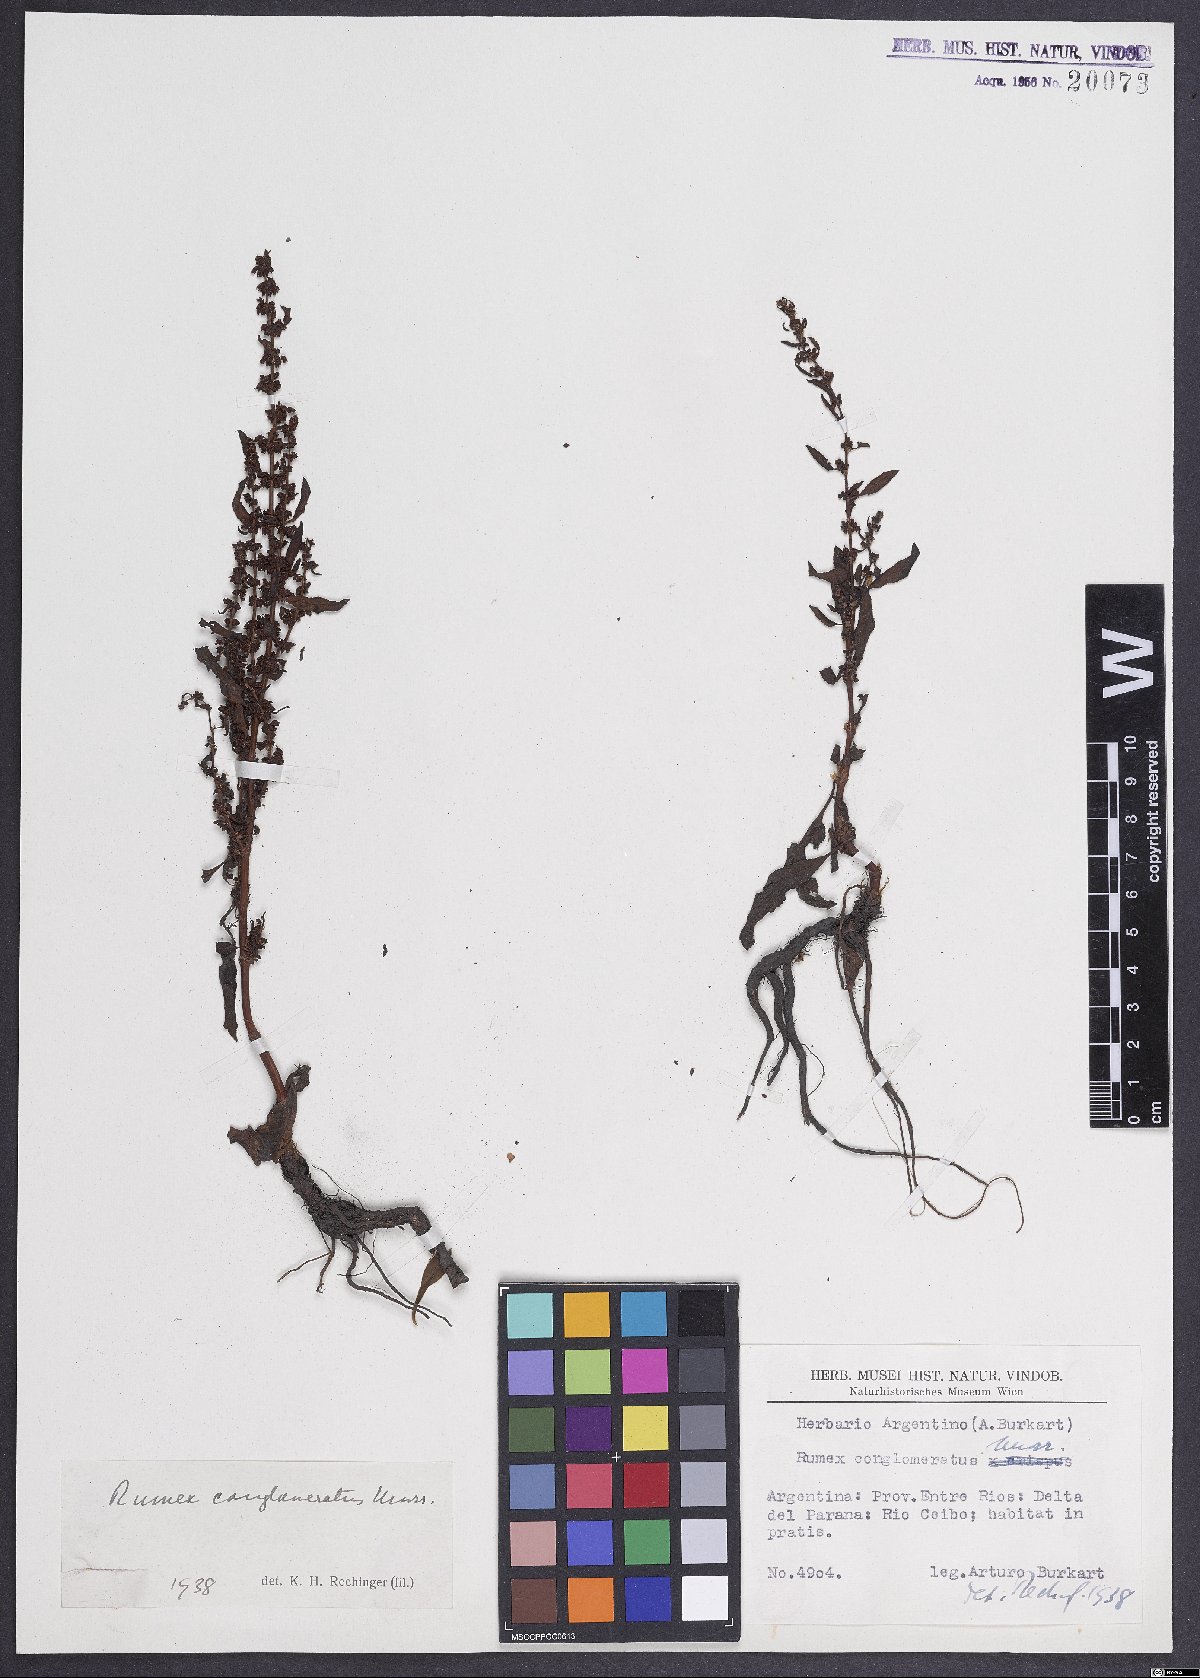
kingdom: Plantae
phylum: Tracheophyta
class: Magnoliopsida
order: Caryophyllales
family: Polygonaceae
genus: Rumex
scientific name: Rumex conglomeratus
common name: Clustered dock
